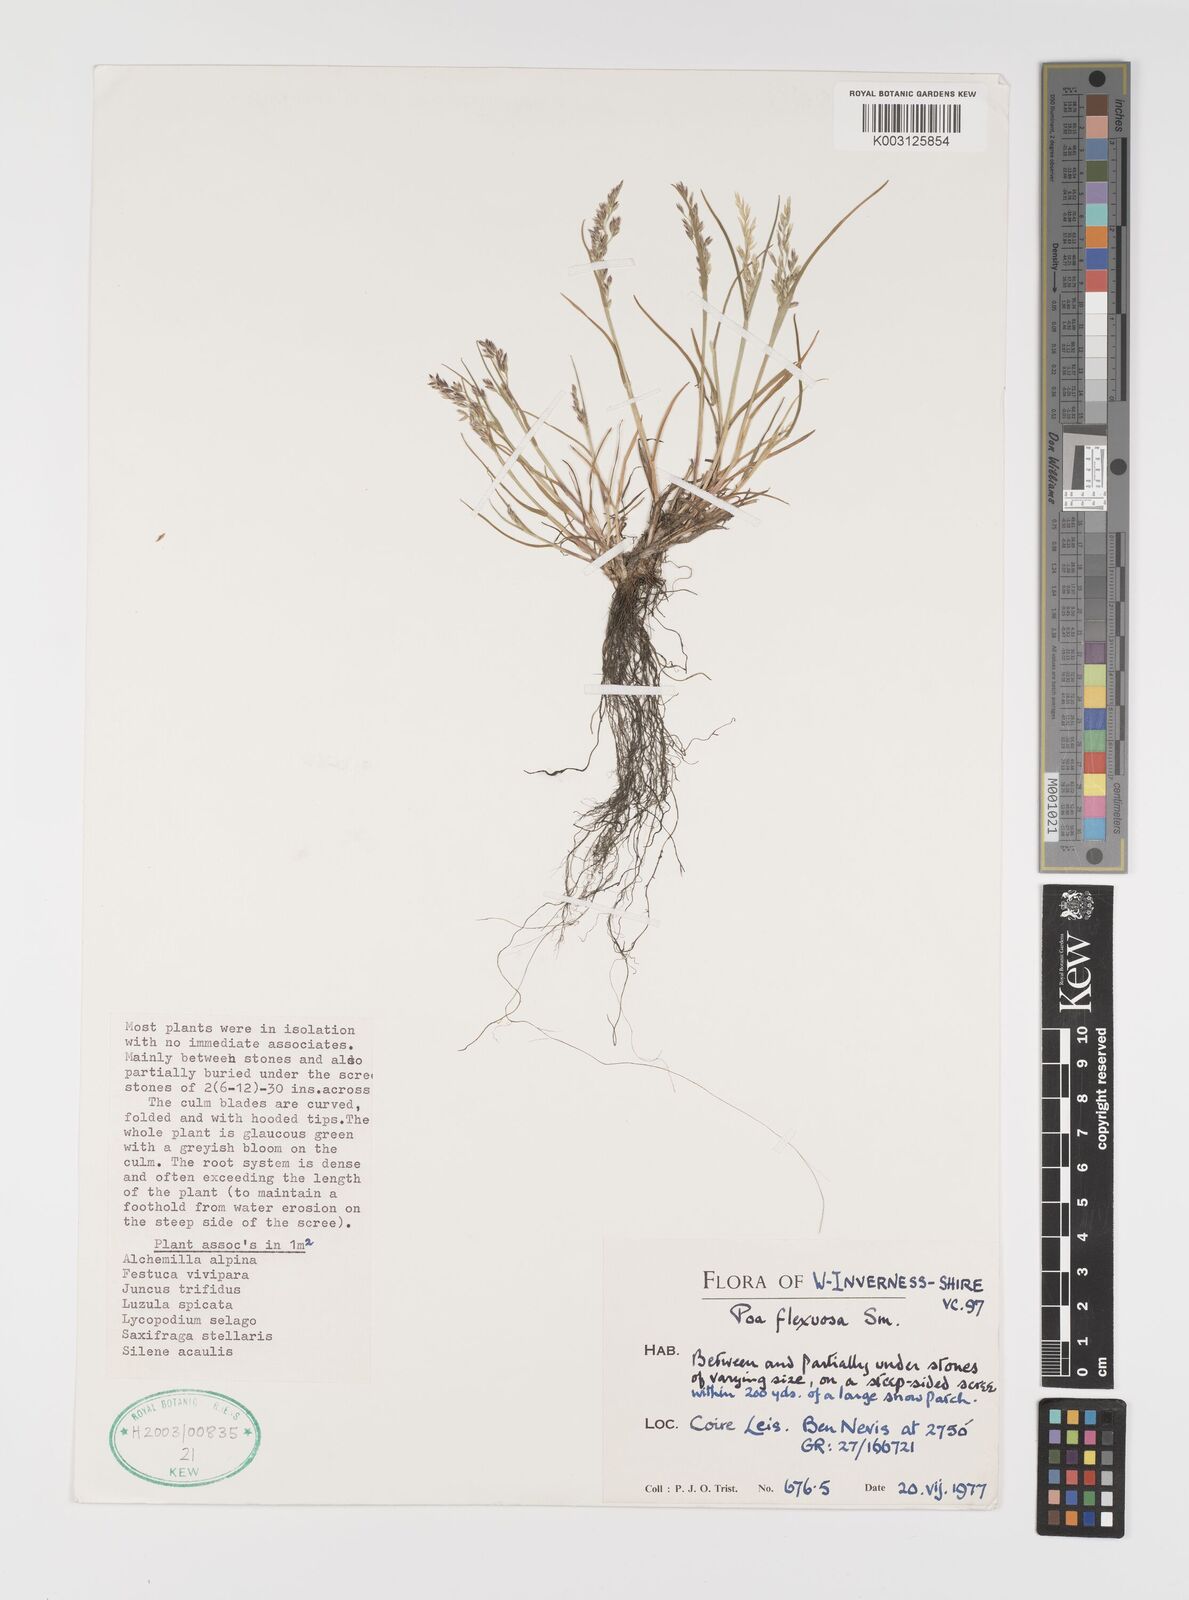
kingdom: Plantae
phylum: Tracheophyta
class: Liliopsida
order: Poales
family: Poaceae
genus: Eragrostis
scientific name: Eragrostis cilianensis
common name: Stinkgrass
